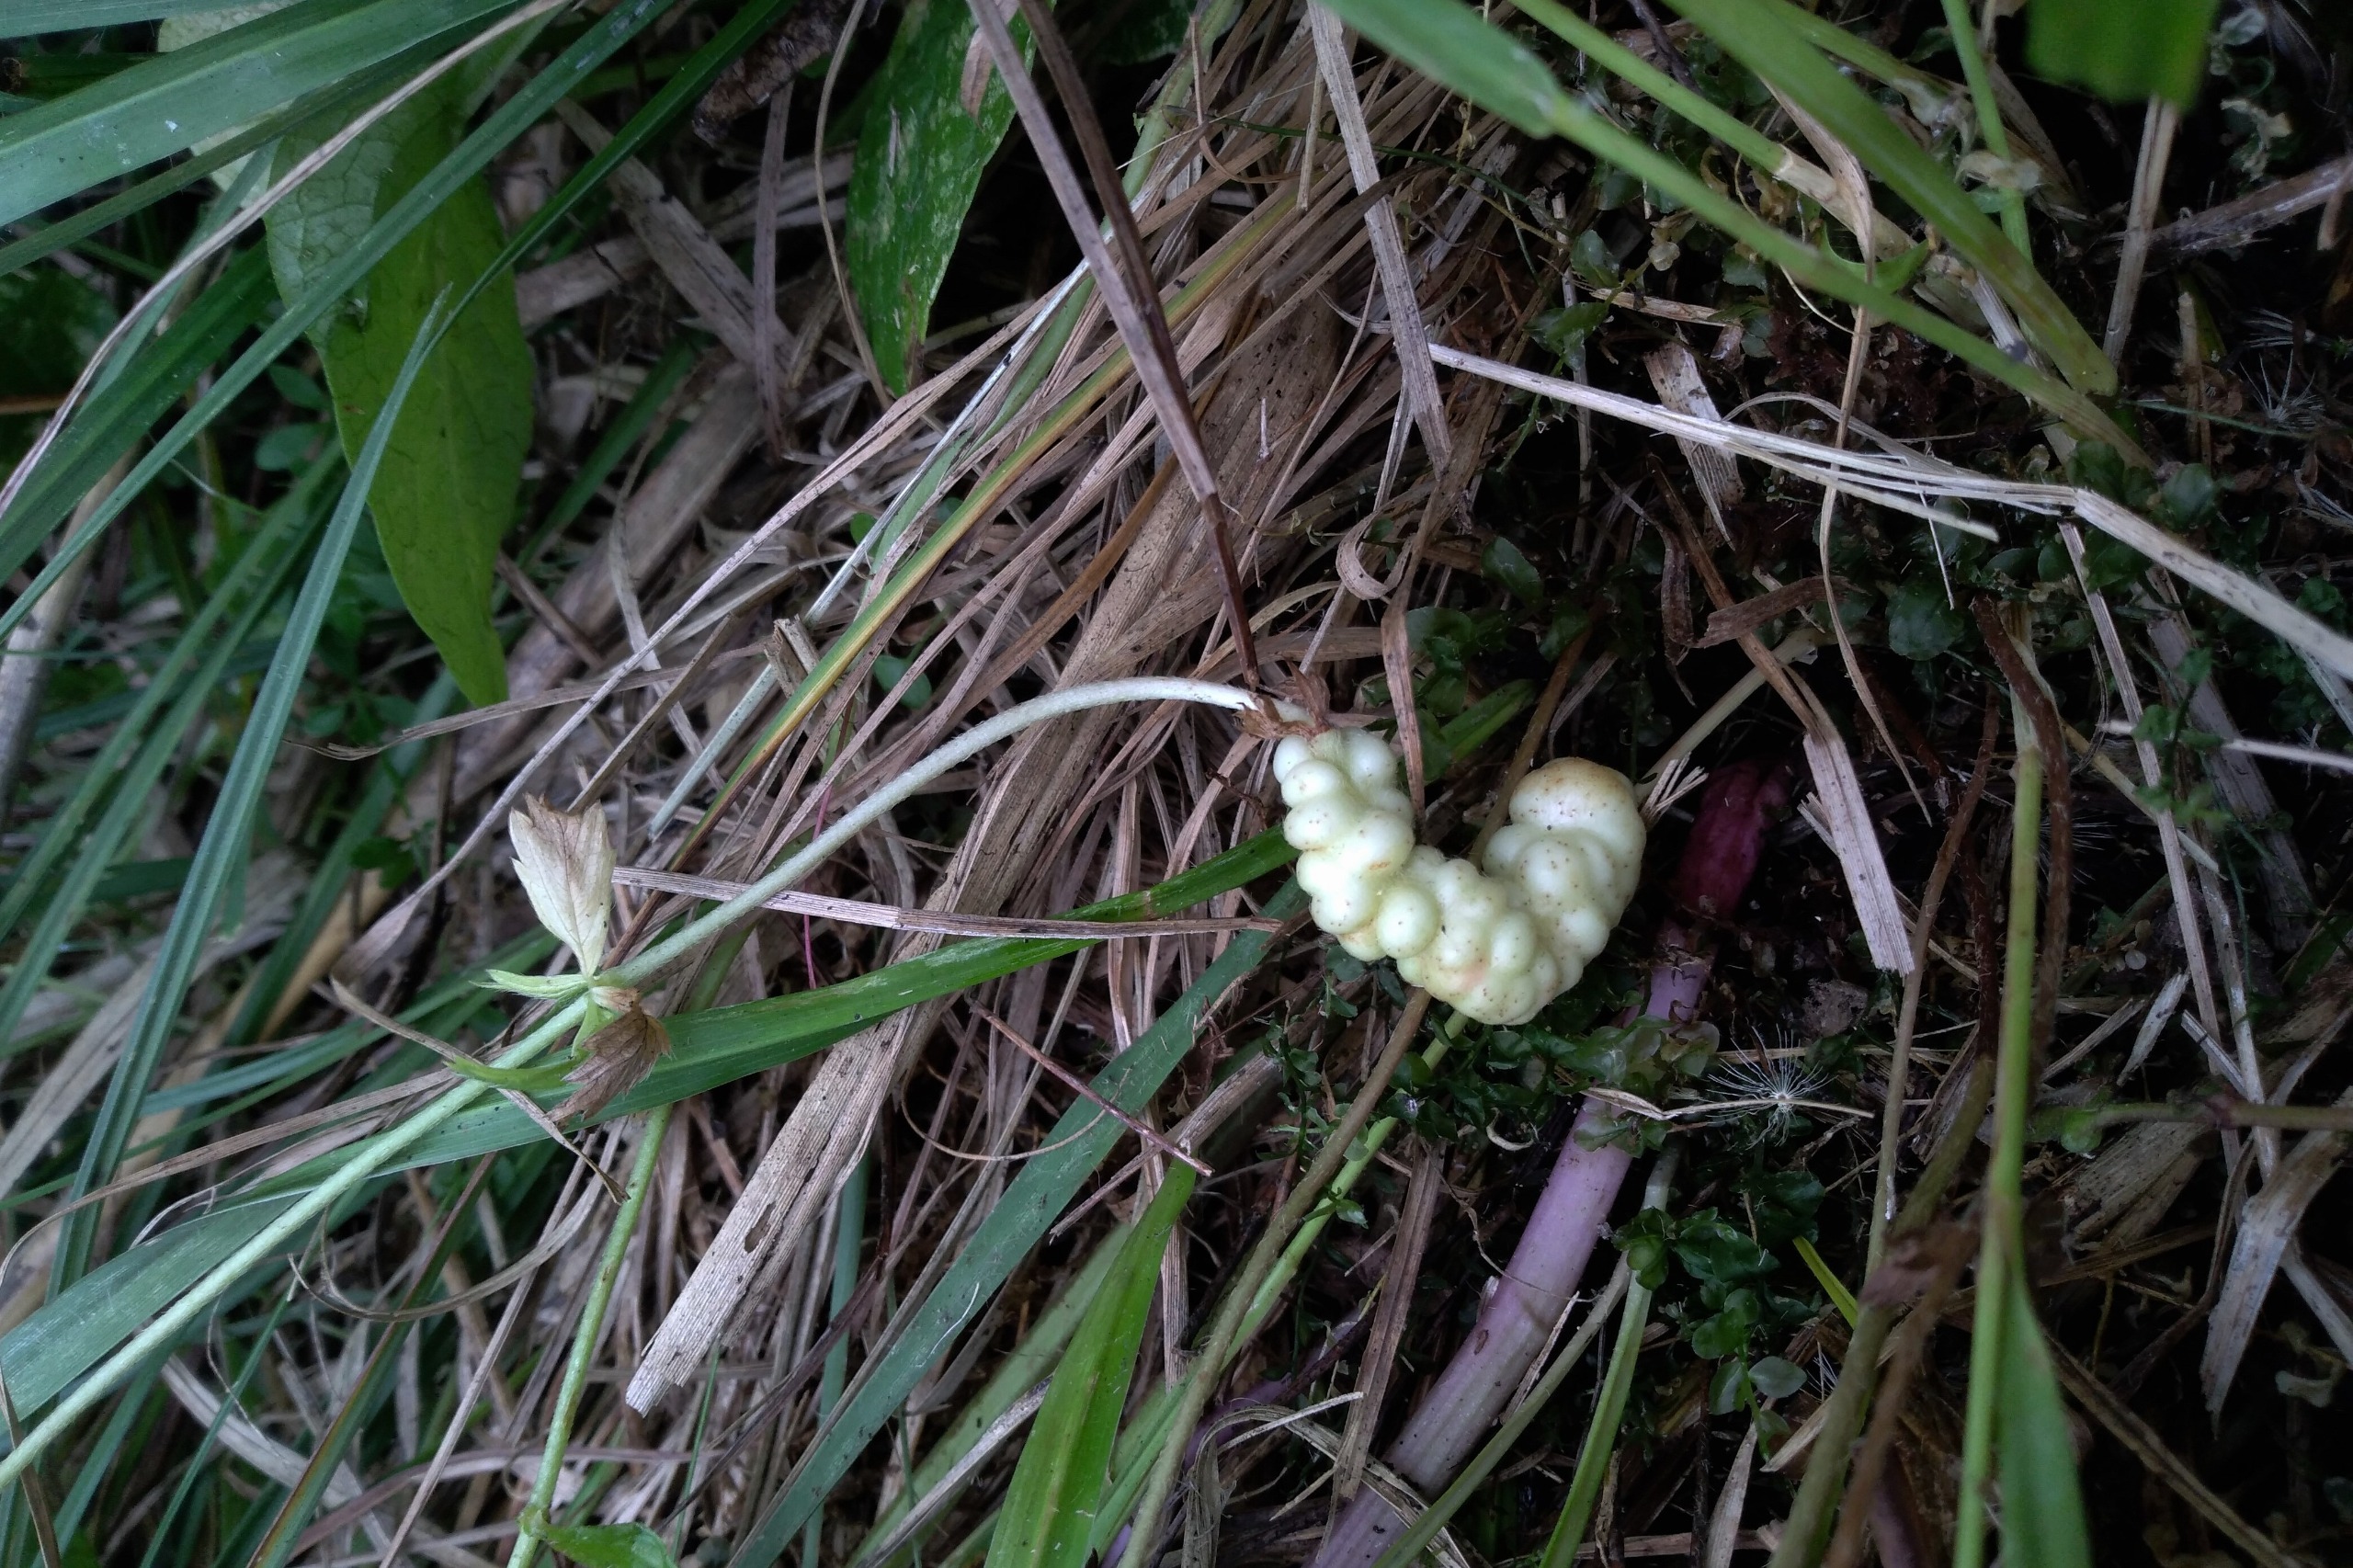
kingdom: Animalia
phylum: Arthropoda
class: Insecta
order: Hymenoptera
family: Cynipidae
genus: Xestophanes
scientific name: Xestophanes brevitarsis
